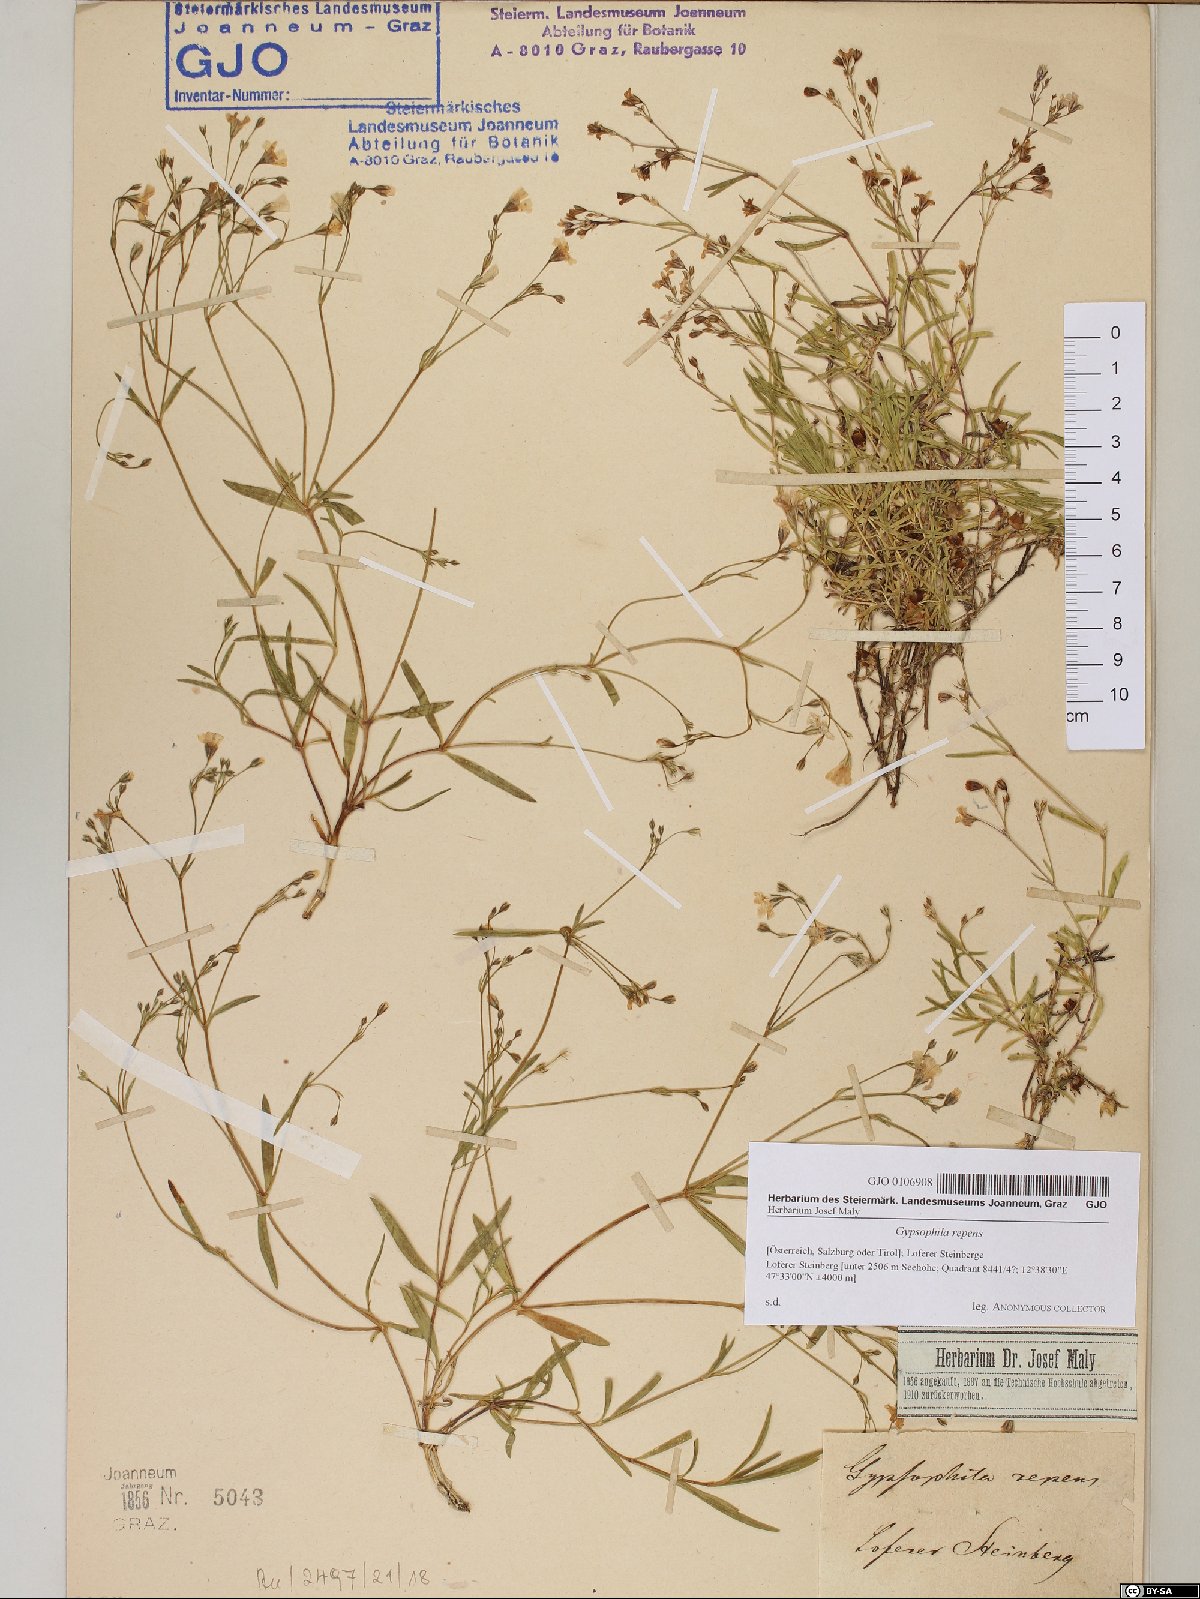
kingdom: Plantae
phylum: Tracheophyta
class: Magnoliopsida
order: Caryophyllales
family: Caryophyllaceae
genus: Gypsophila
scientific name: Gypsophila repens
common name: Creeping baby's-breath
